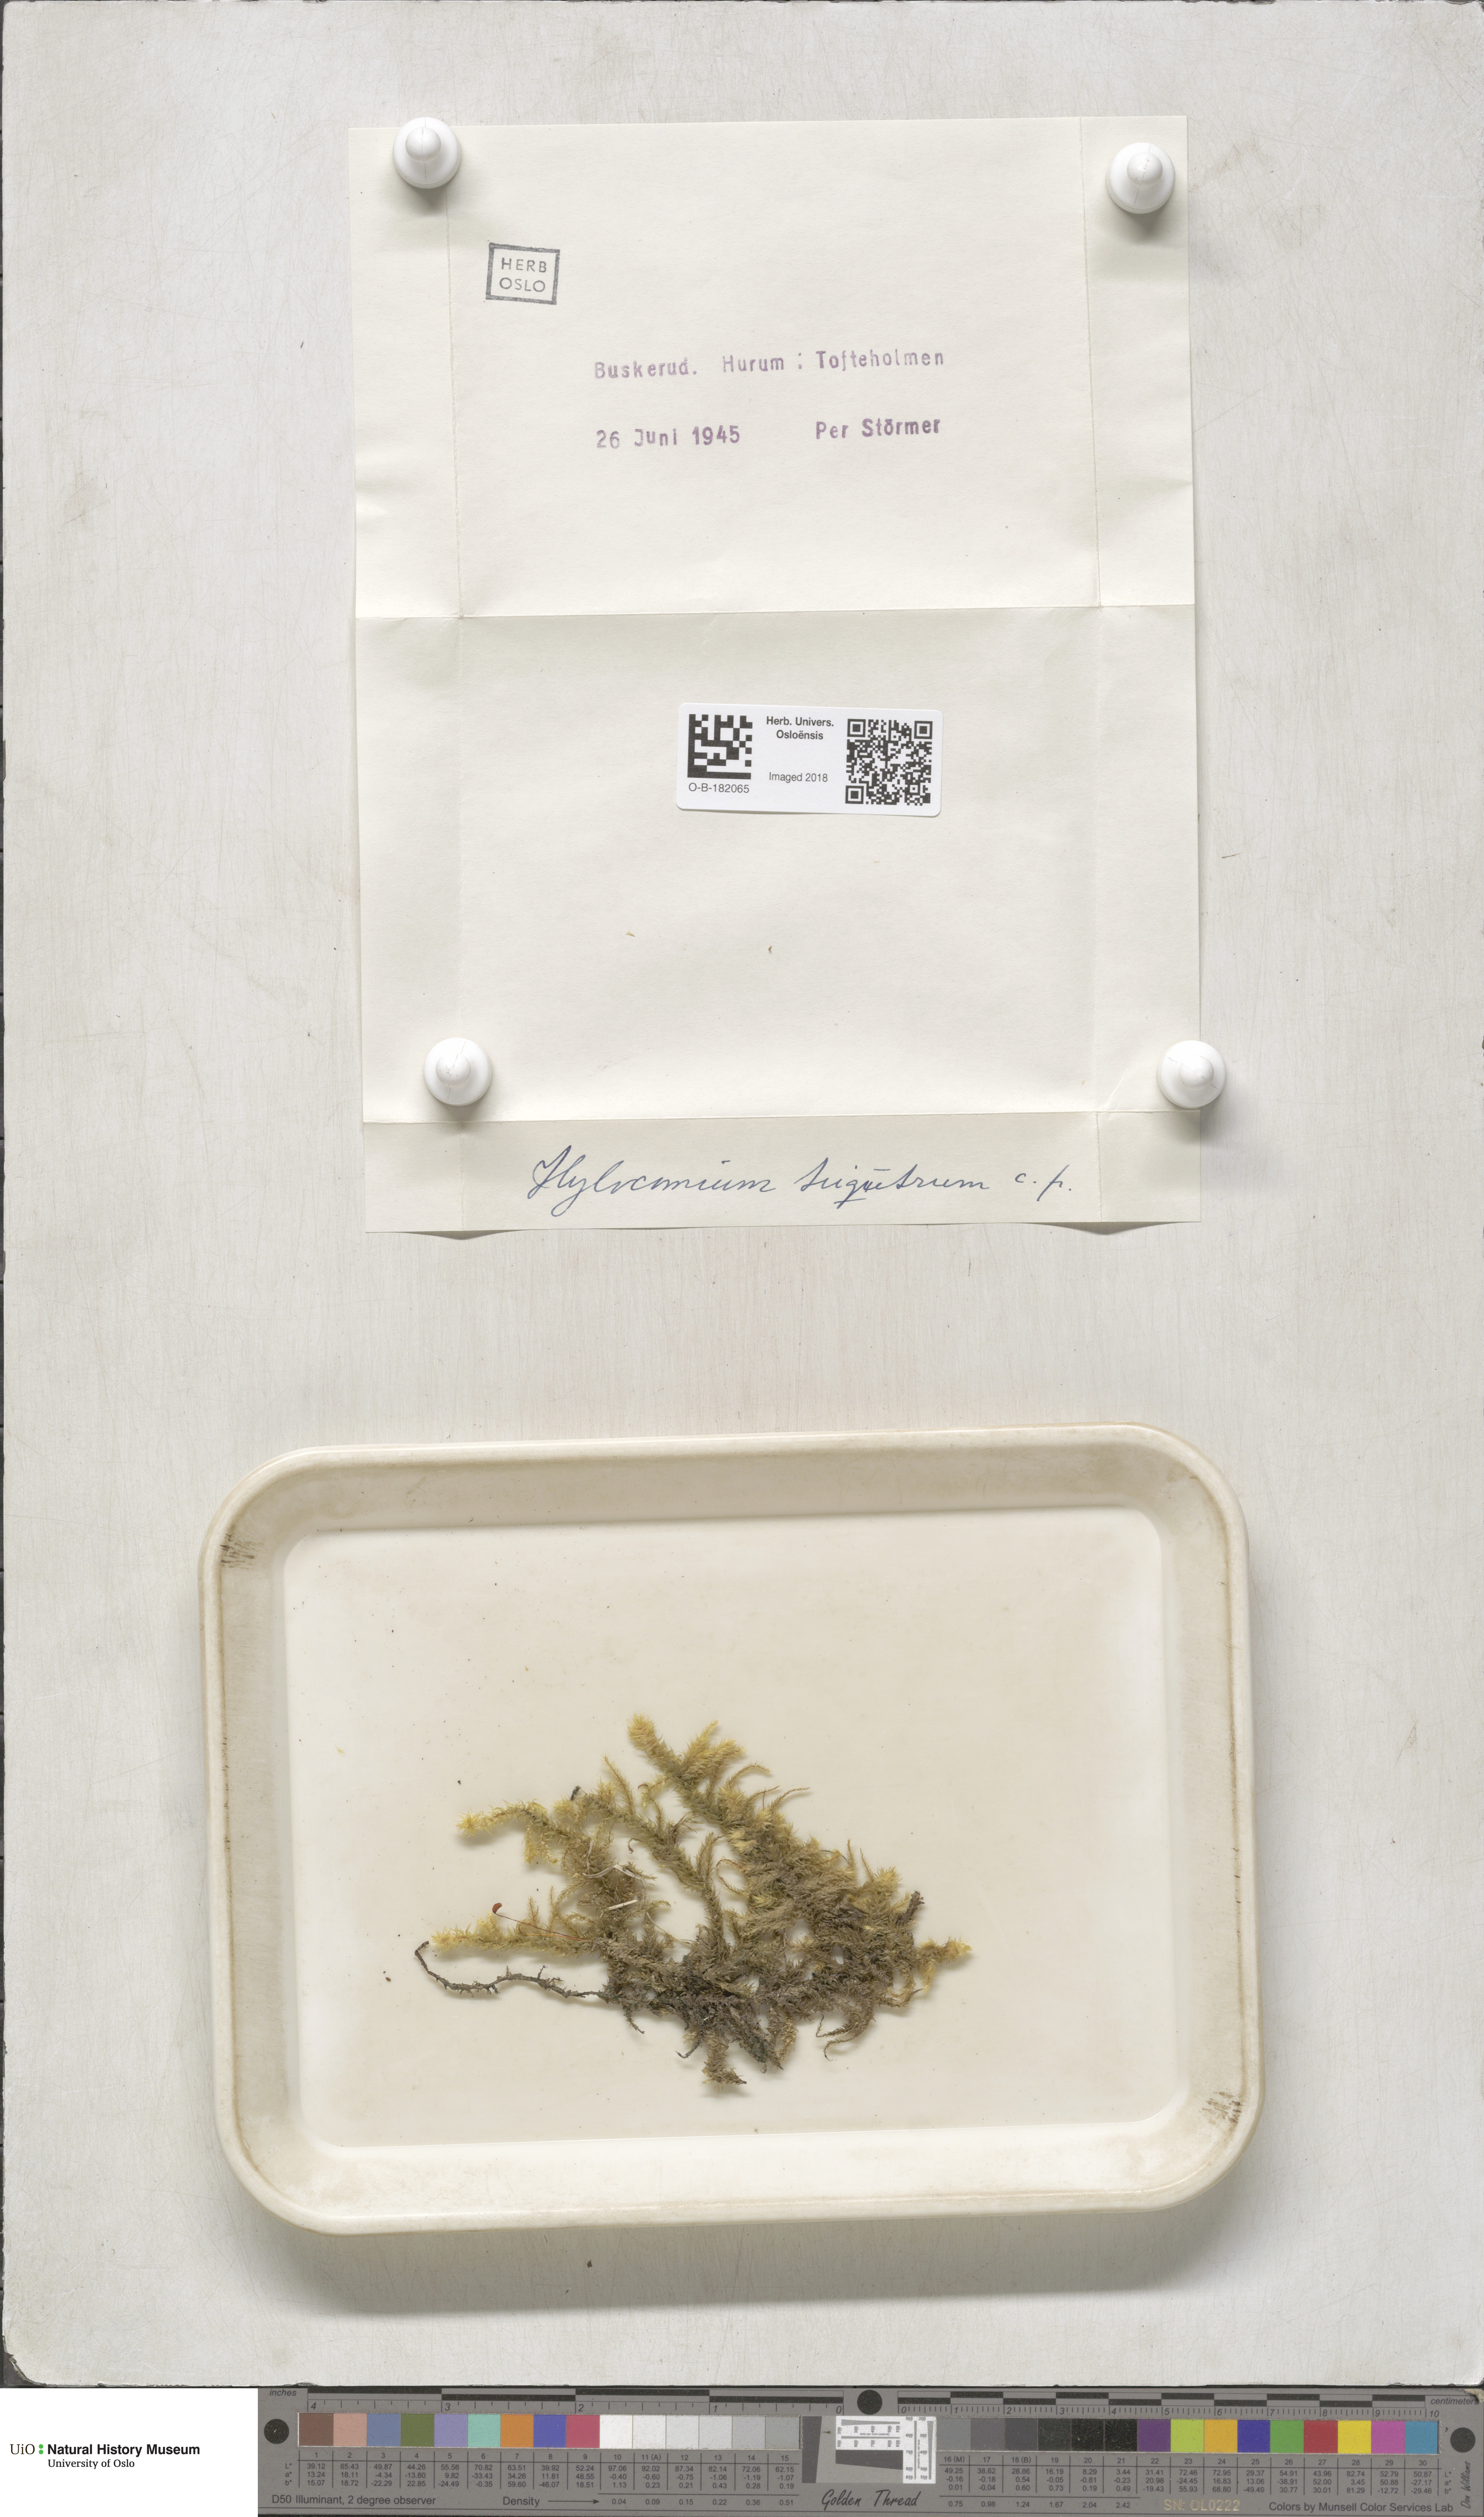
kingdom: Plantae
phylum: Bryophyta
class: Bryopsida
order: Hypnales
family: Hylocomiaceae
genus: Hylocomiadelphus
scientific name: Hylocomiadelphus triquetrus
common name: Rough goose neck moss
